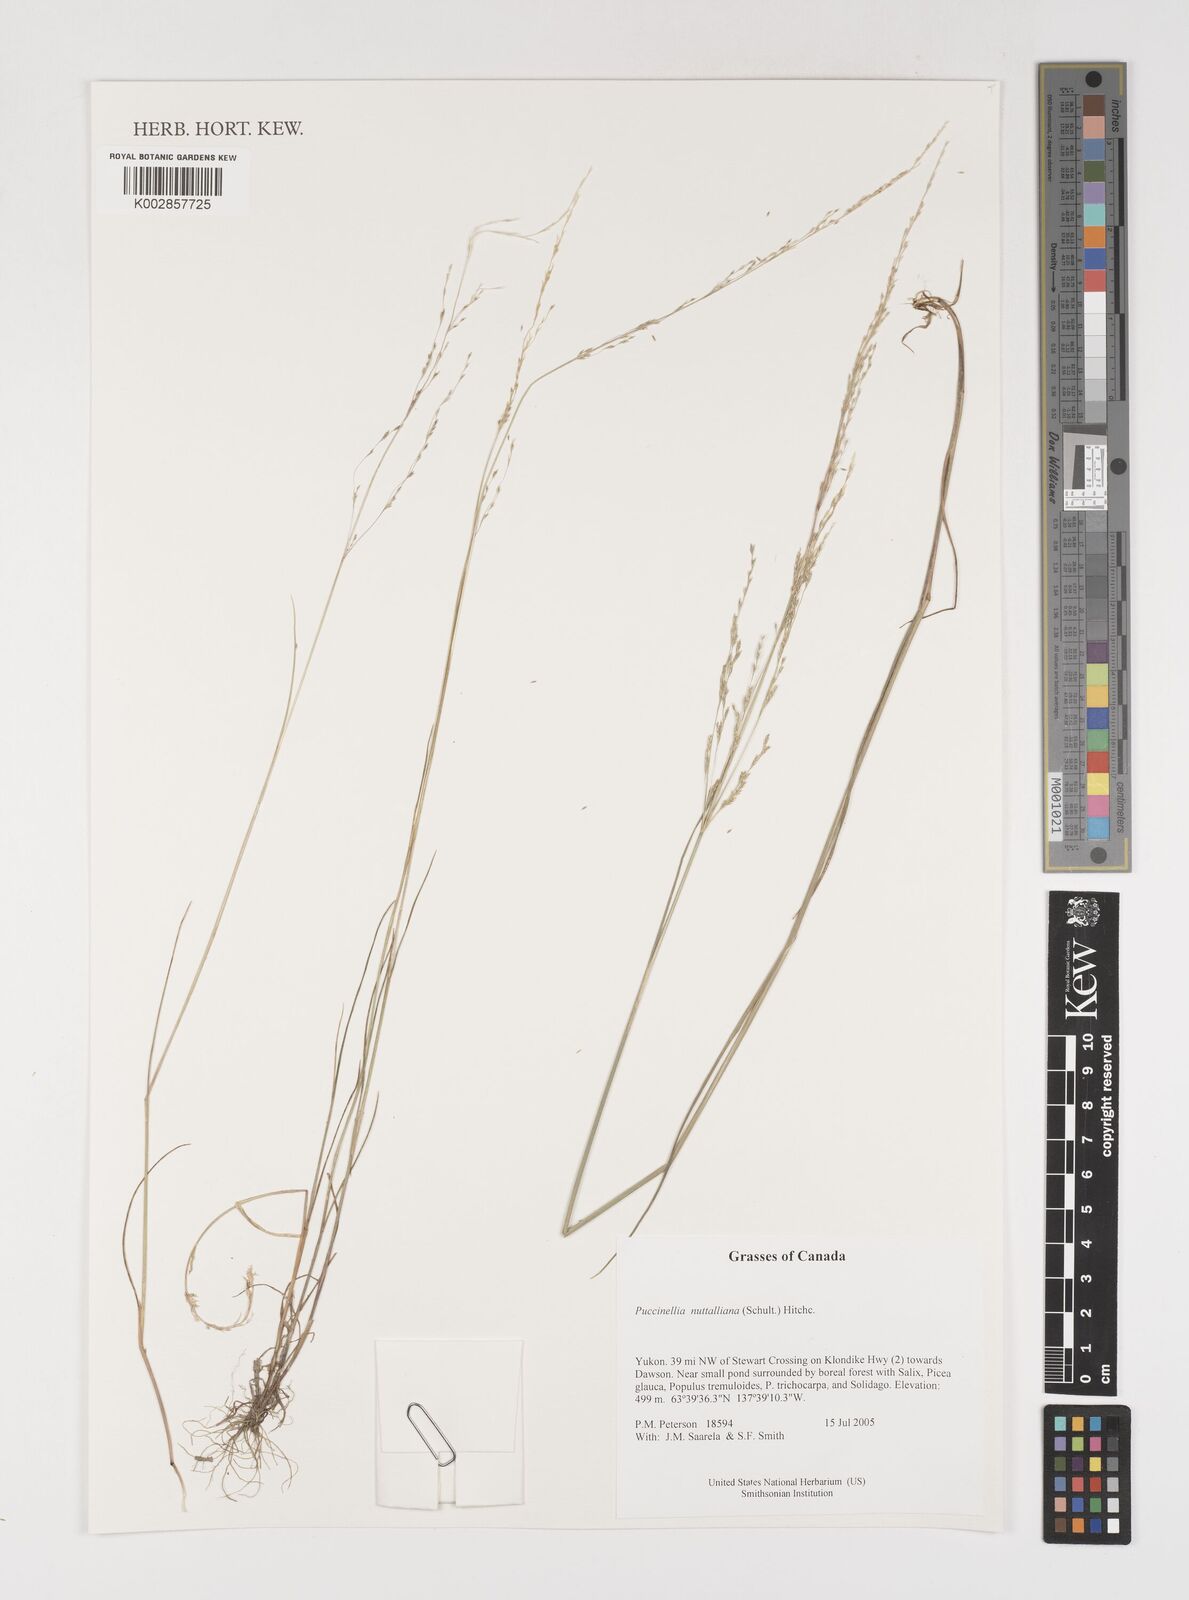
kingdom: Plantae
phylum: Tracheophyta
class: Liliopsida
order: Poales
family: Poaceae
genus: Puccinellia
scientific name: Puccinellia nuttalliana
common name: Nuttall's alkali grass
